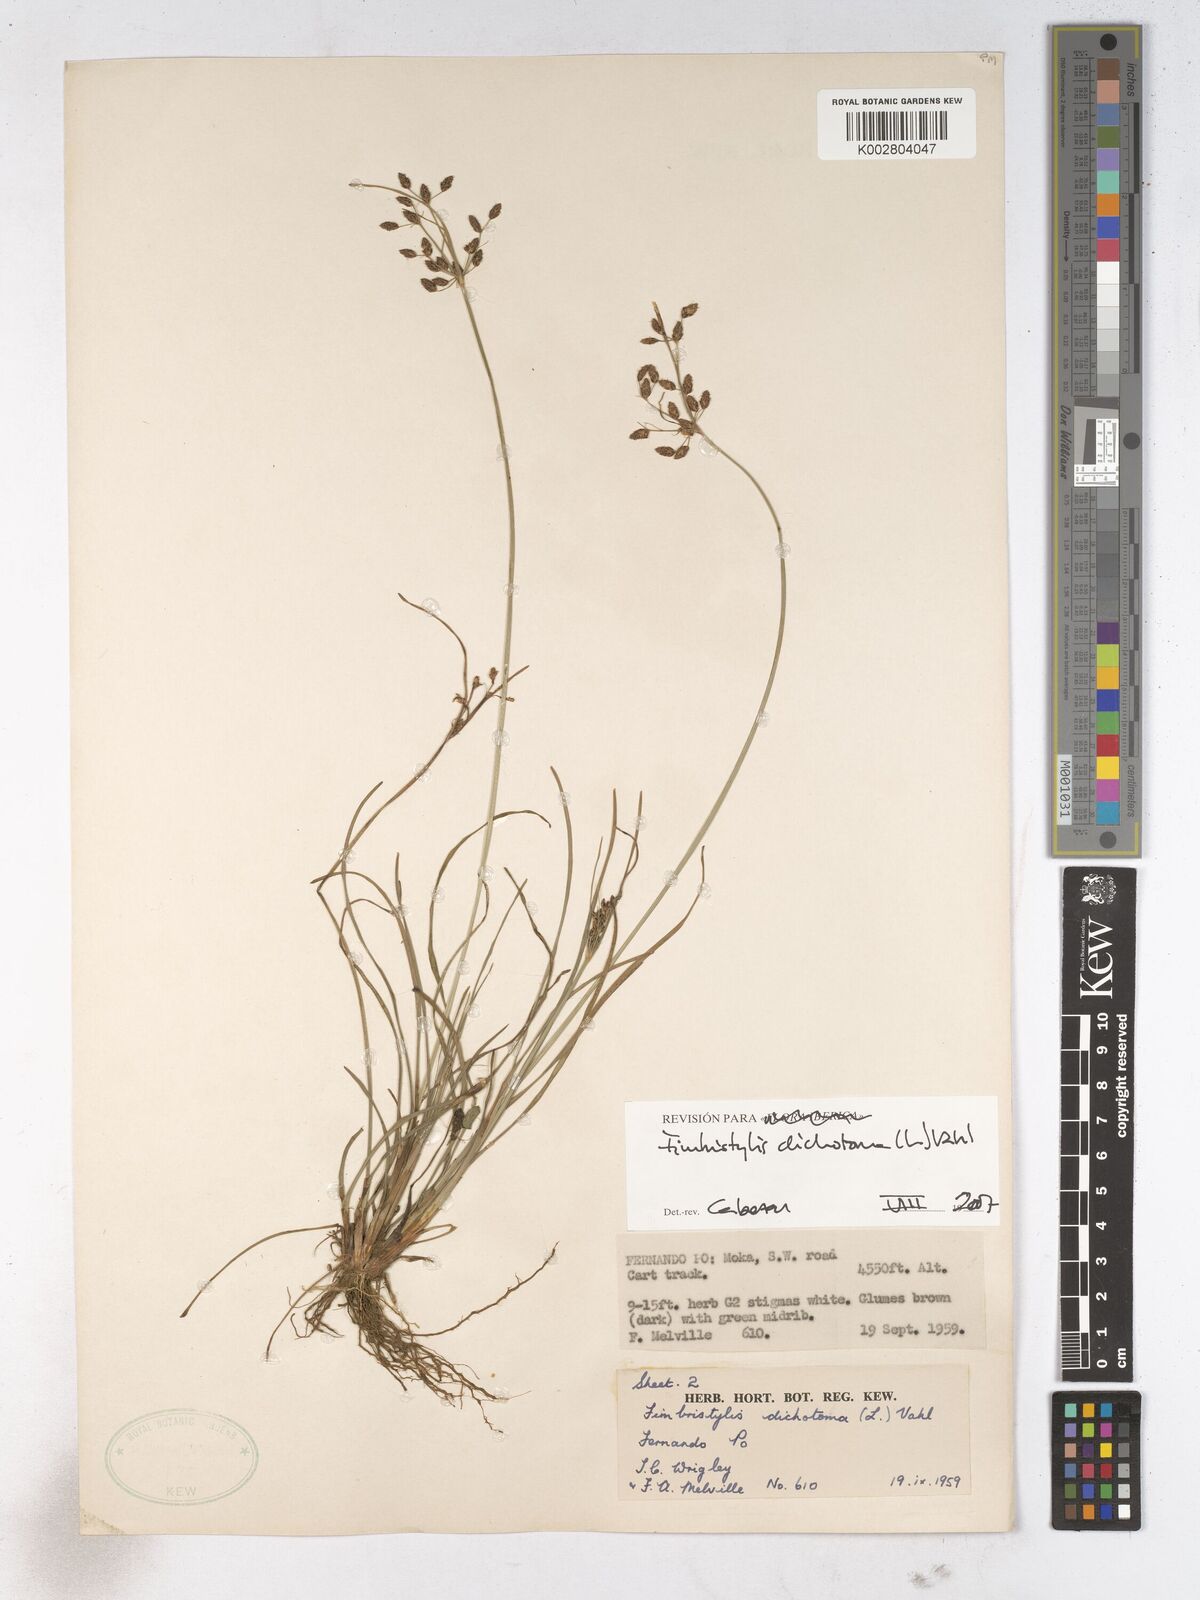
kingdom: Plantae
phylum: Tracheophyta
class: Liliopsida
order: Poales
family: Cyperaceae
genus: Fimbristylis
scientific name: Fimbristylis dichotoma
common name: Forked fimbry
